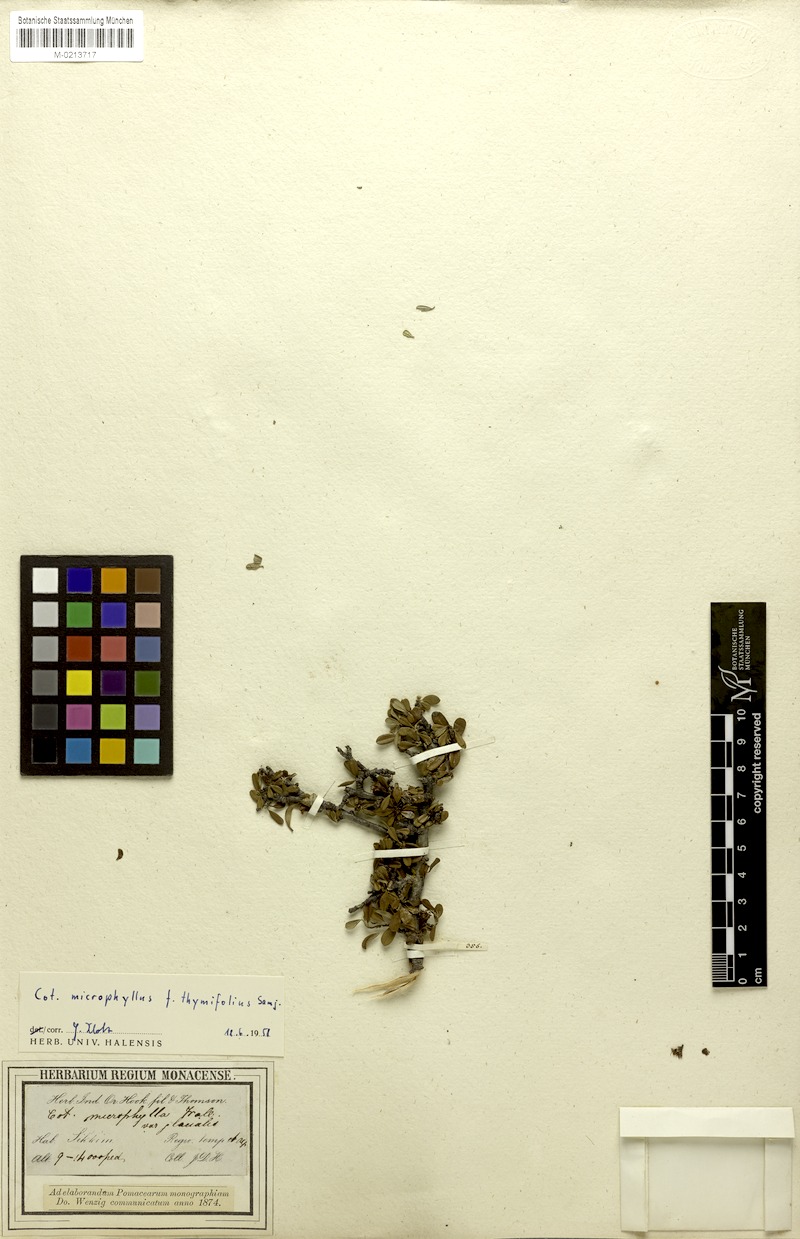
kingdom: Plantae
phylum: Tracheophyta
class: Magnoliopsida
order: Rosales
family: Rosaceae
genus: Cotoneaster
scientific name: Cotoneaster microphyllus
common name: Small-leaved cotoneaster
